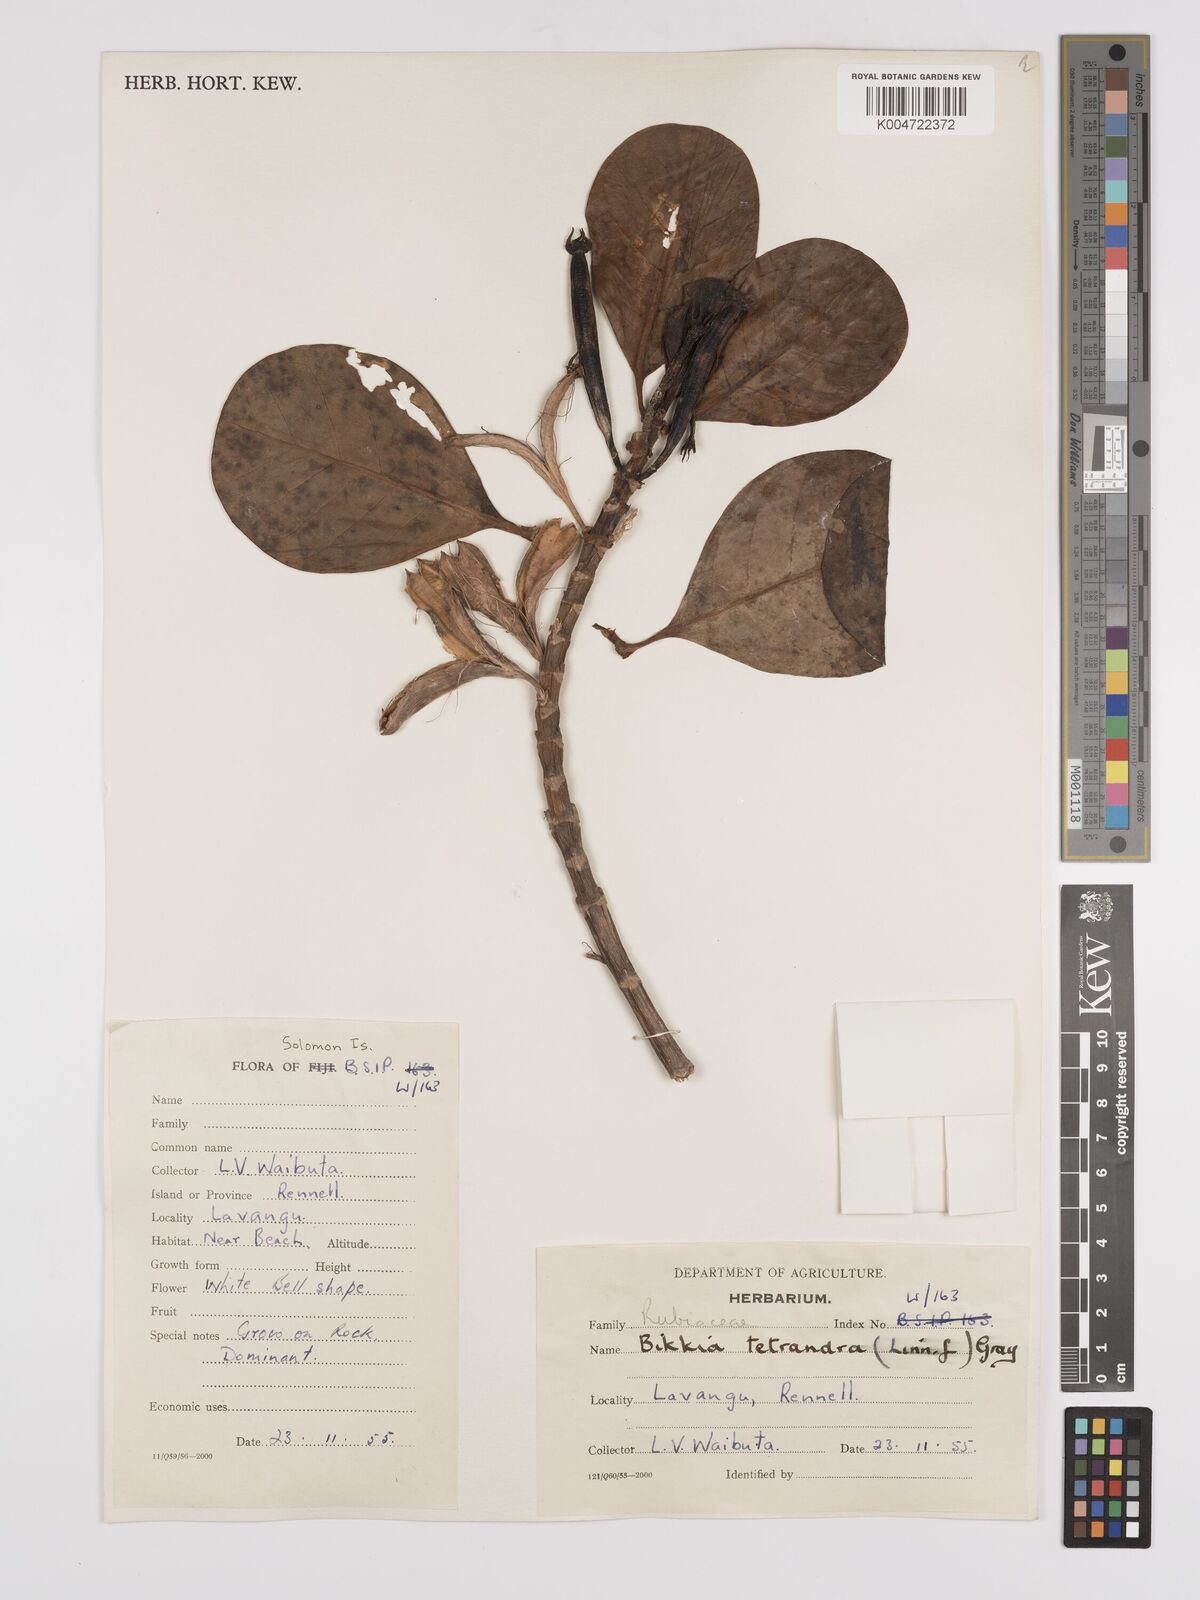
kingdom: Plantae
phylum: Tracheophyta
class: Magnoliopsida
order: Gentianales
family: Rubiaceae
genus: Bikkia
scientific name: Bikkia
